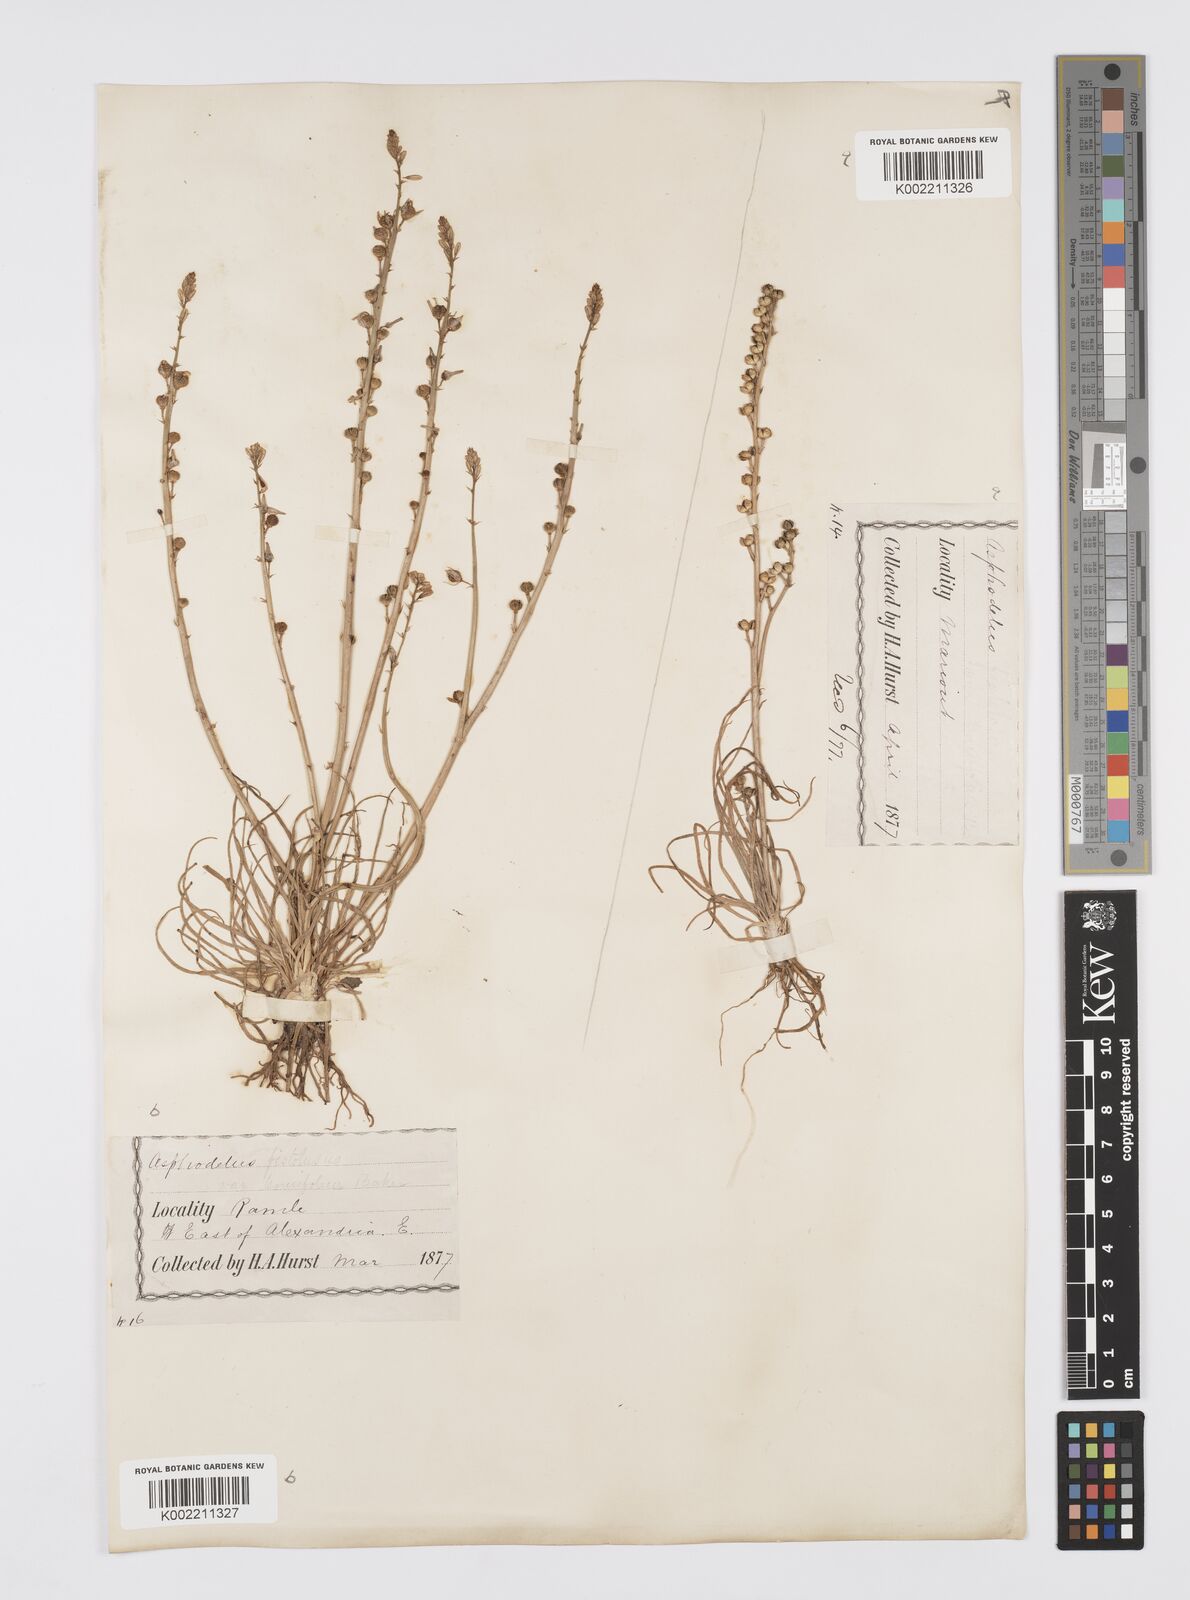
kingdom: Plantae
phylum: Tracheophyta
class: Liliopsida
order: Asparagales
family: Asphodelaceae
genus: Asphodelus
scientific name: Asphodelus tenuifolius
